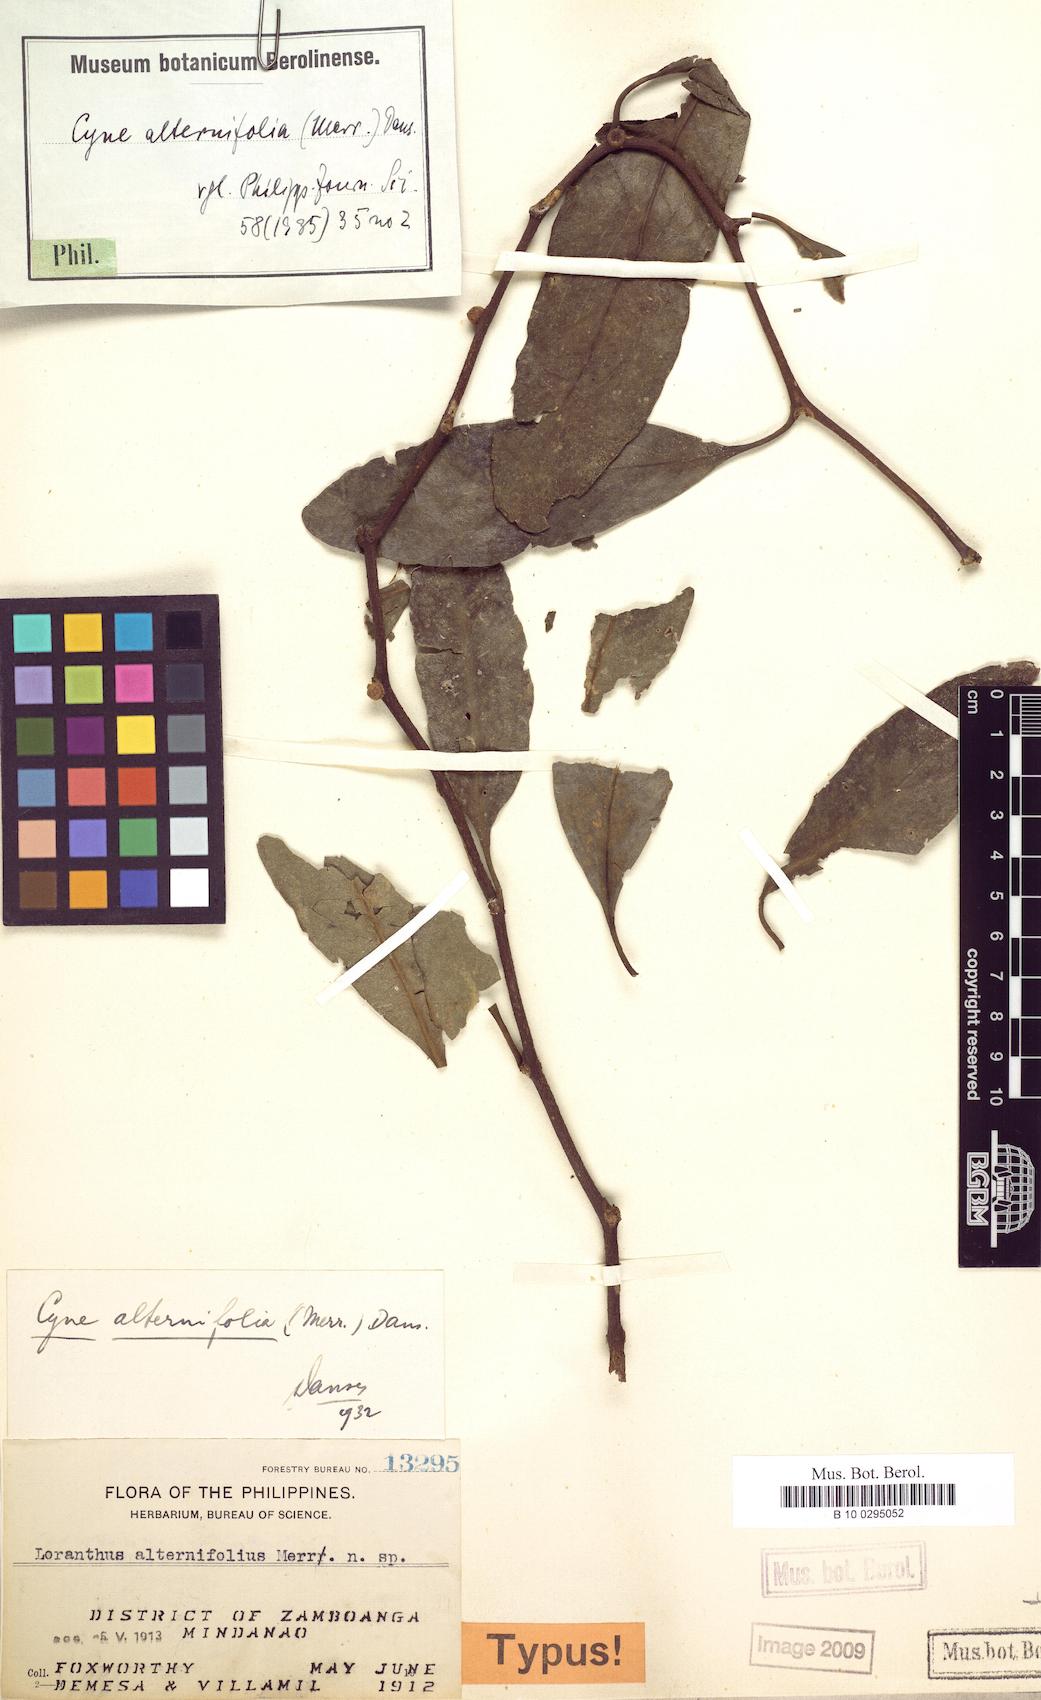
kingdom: Plantae
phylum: Tracheophyta
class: Magnoliopsida
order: Santalales
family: Loranthaceae
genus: Cyne
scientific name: Cyne banahaensis
